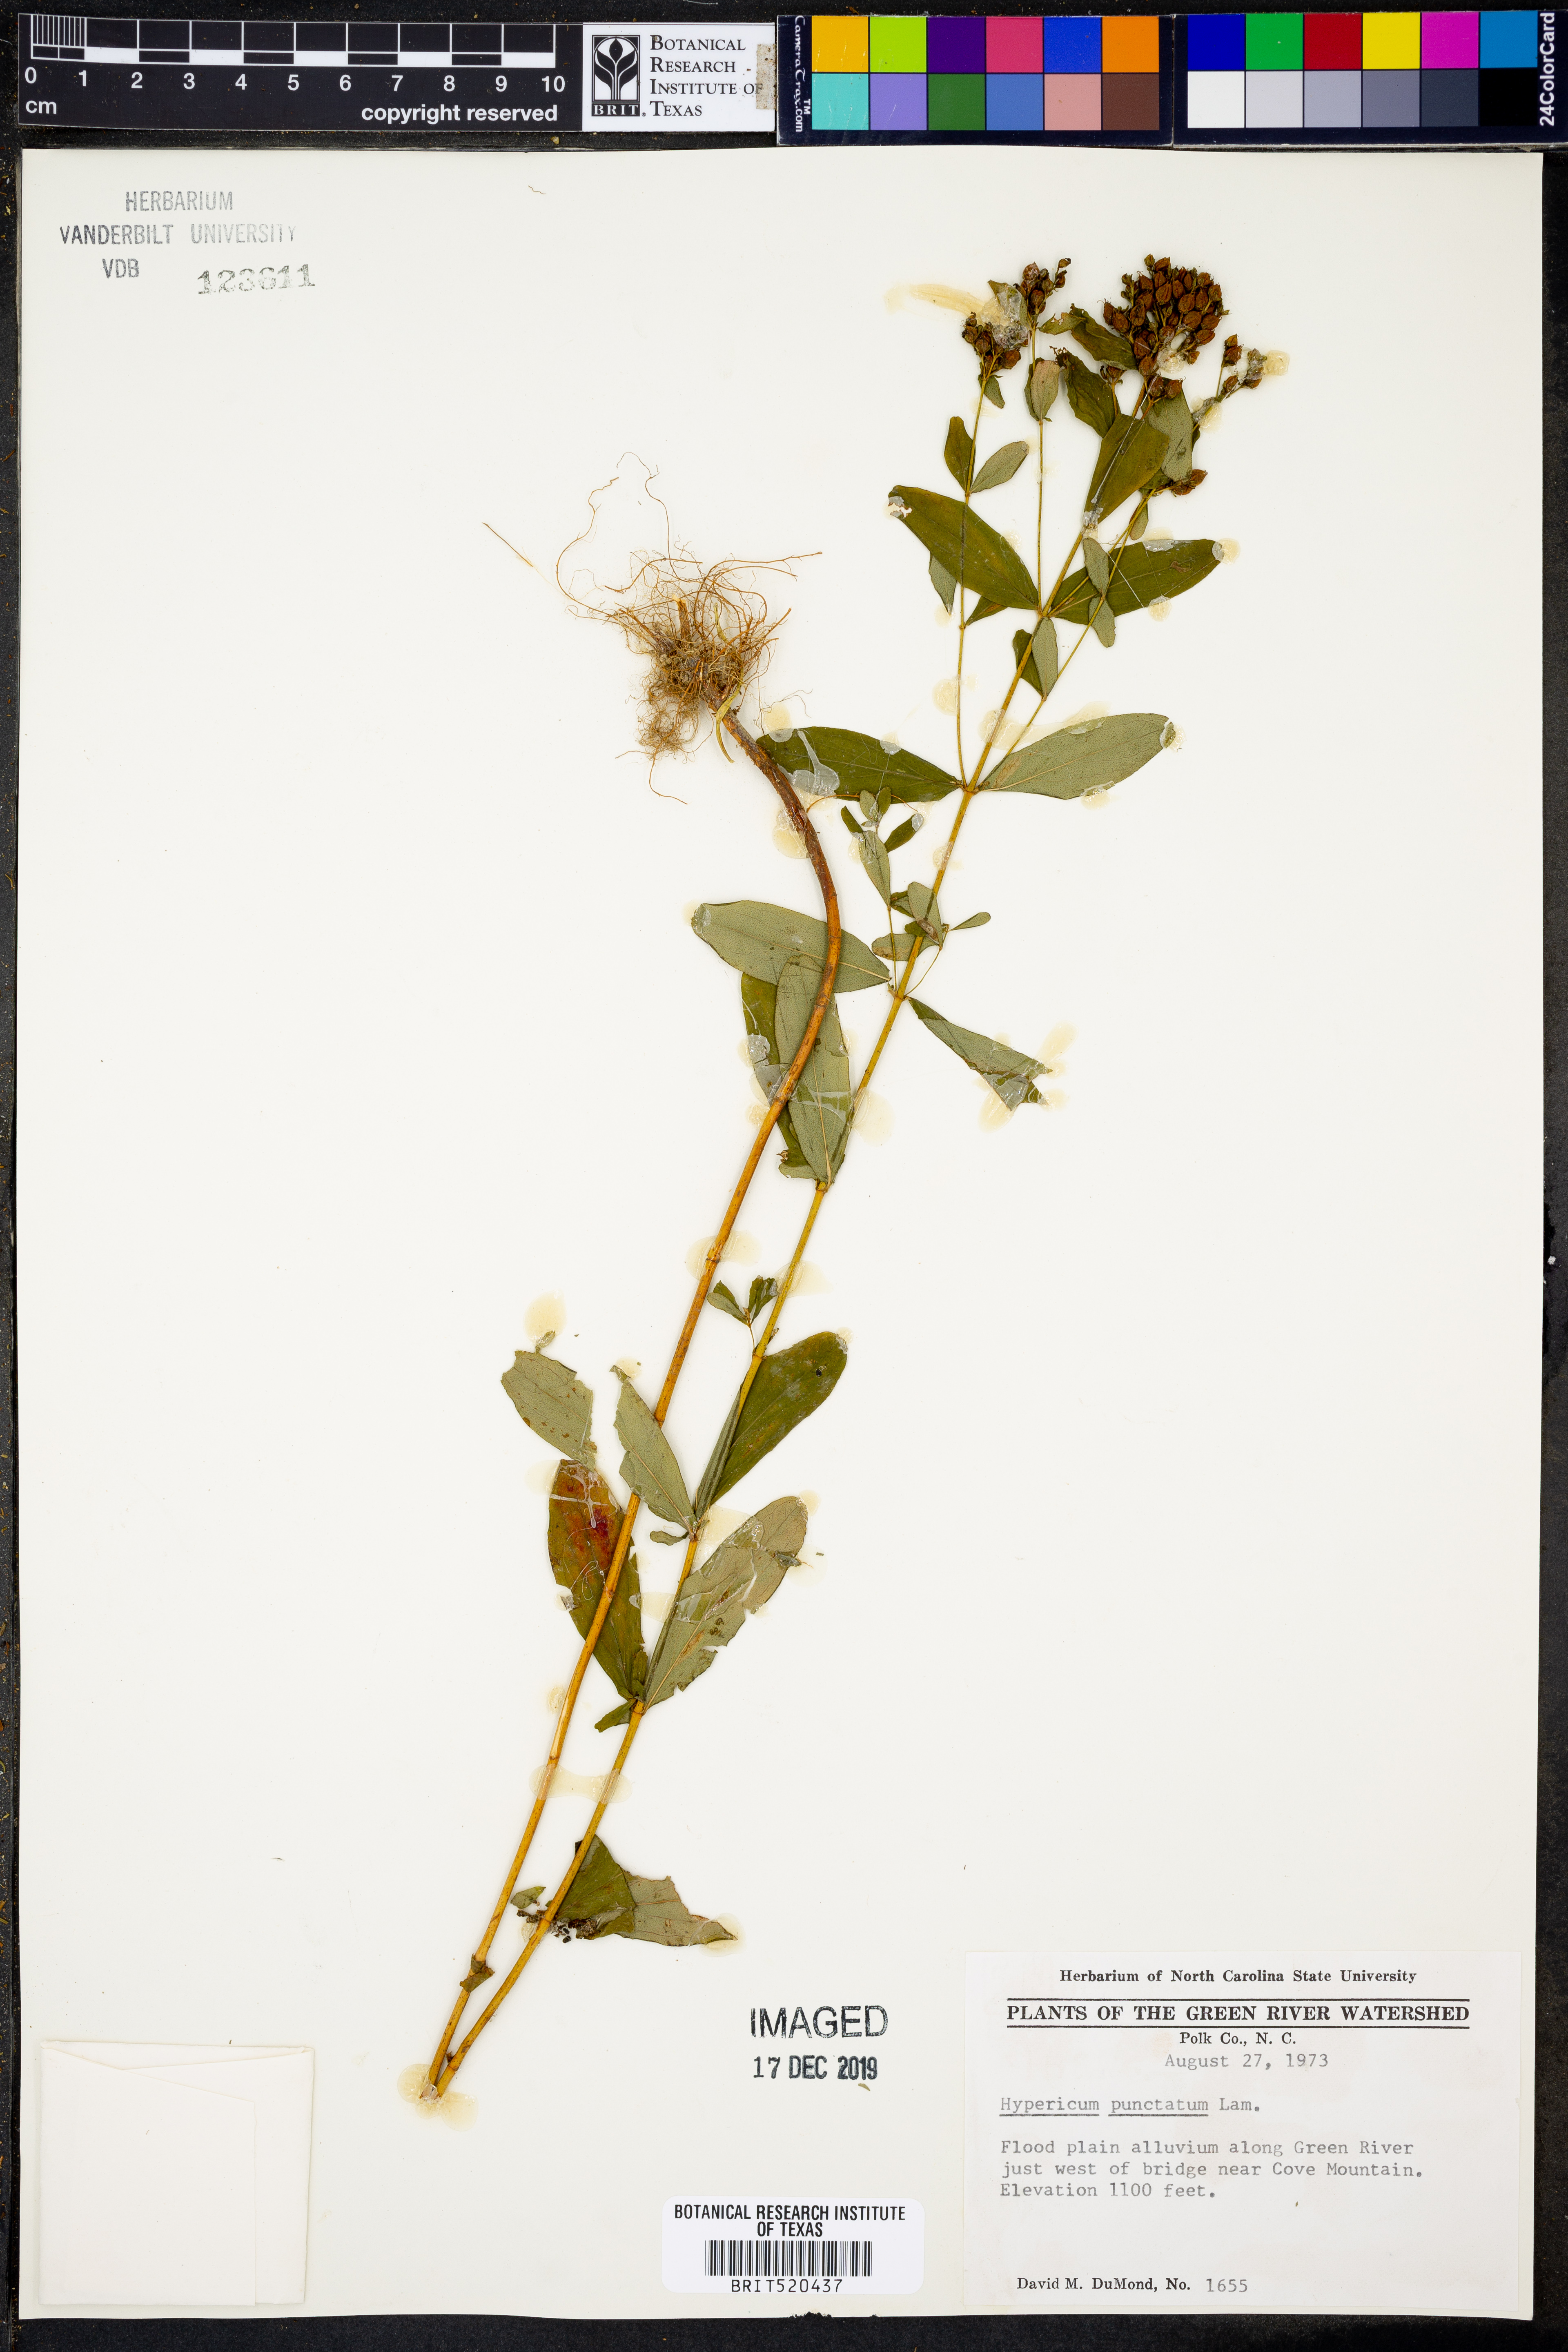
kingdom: Plantae
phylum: Tracheophyta
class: Magnoliopsida
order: Malpighiales
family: Hypericaceae
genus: Hypericum
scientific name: Hypericum punctatum
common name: Spotted st. john's-wort
